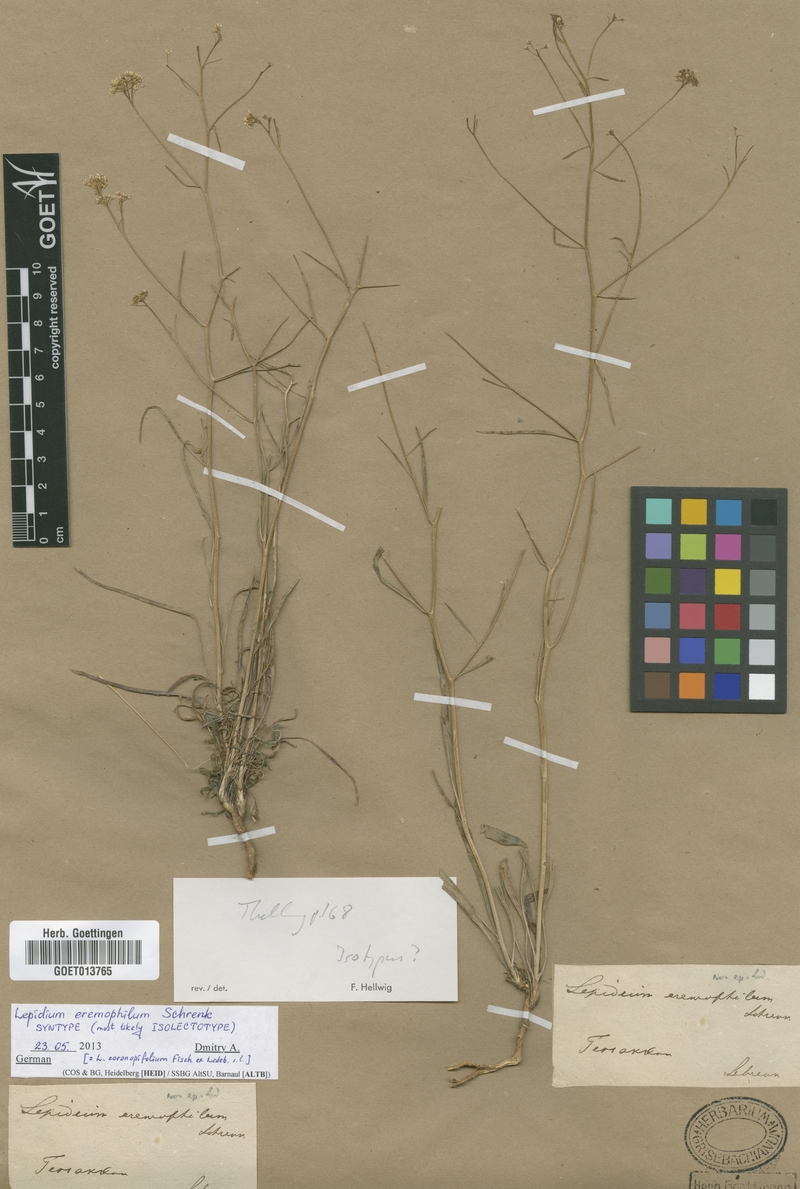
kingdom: Plantae
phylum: Tracheophyta
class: Magnoliopsida
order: Brassicales
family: Brassicaceae
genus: Lepidium
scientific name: Lepidium persicum
